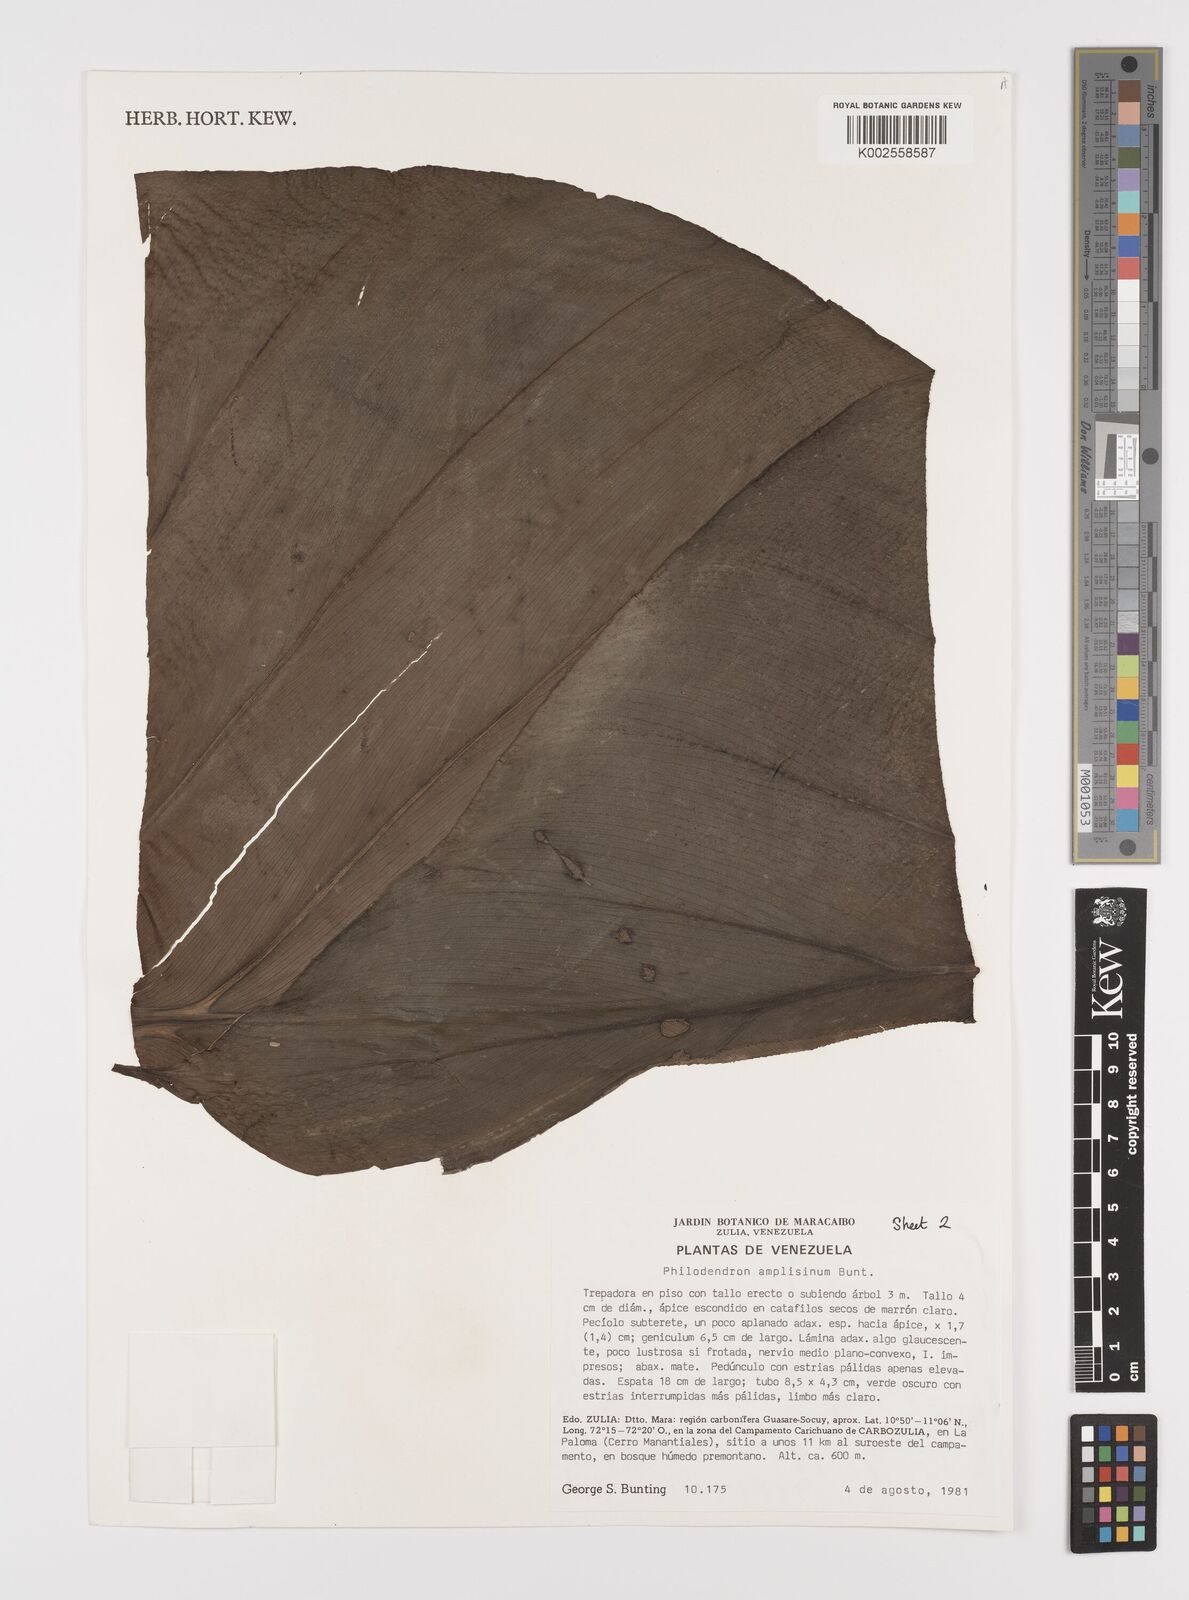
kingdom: Plantae
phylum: Tracheophyta
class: Liliopsida
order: Alismatales
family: Araceae
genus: Philodendron
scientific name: Philodendron amplisinum
